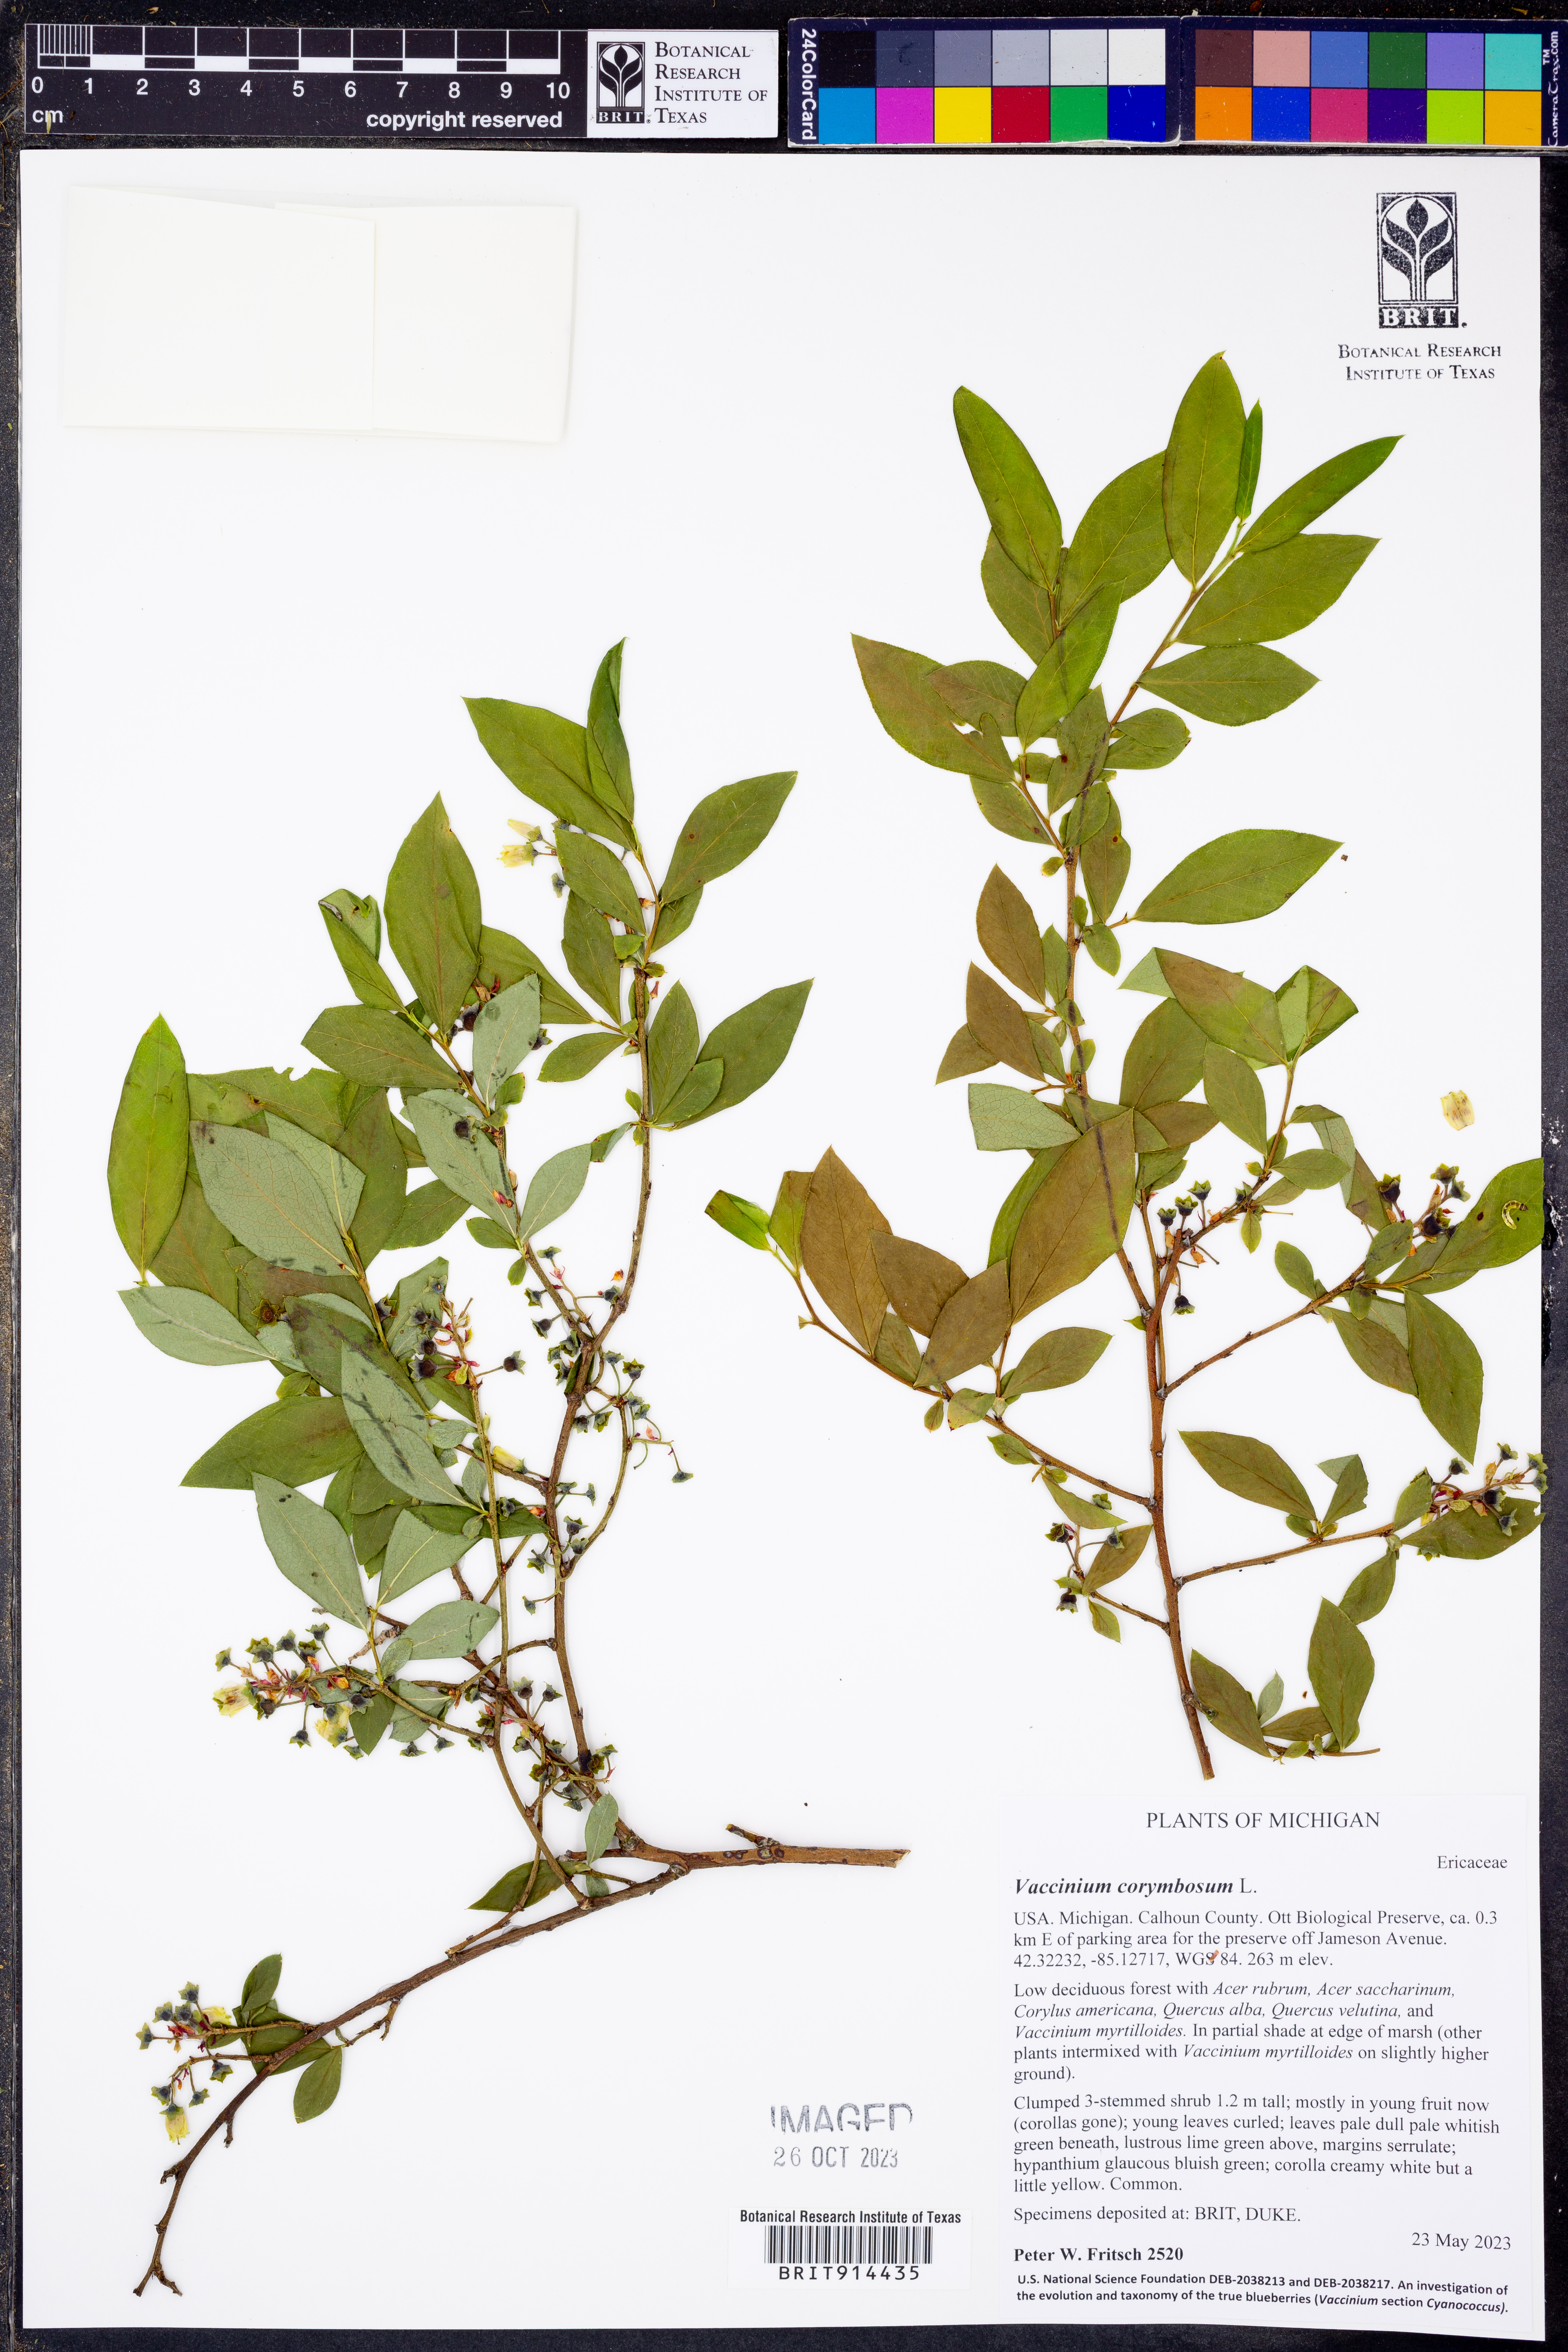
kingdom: Plantae
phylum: Tracheophyta
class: Magnoliopsida
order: Ericales
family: Ericaceae
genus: Vaccinium
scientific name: Vaccinium corymbosum
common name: Blueberry
